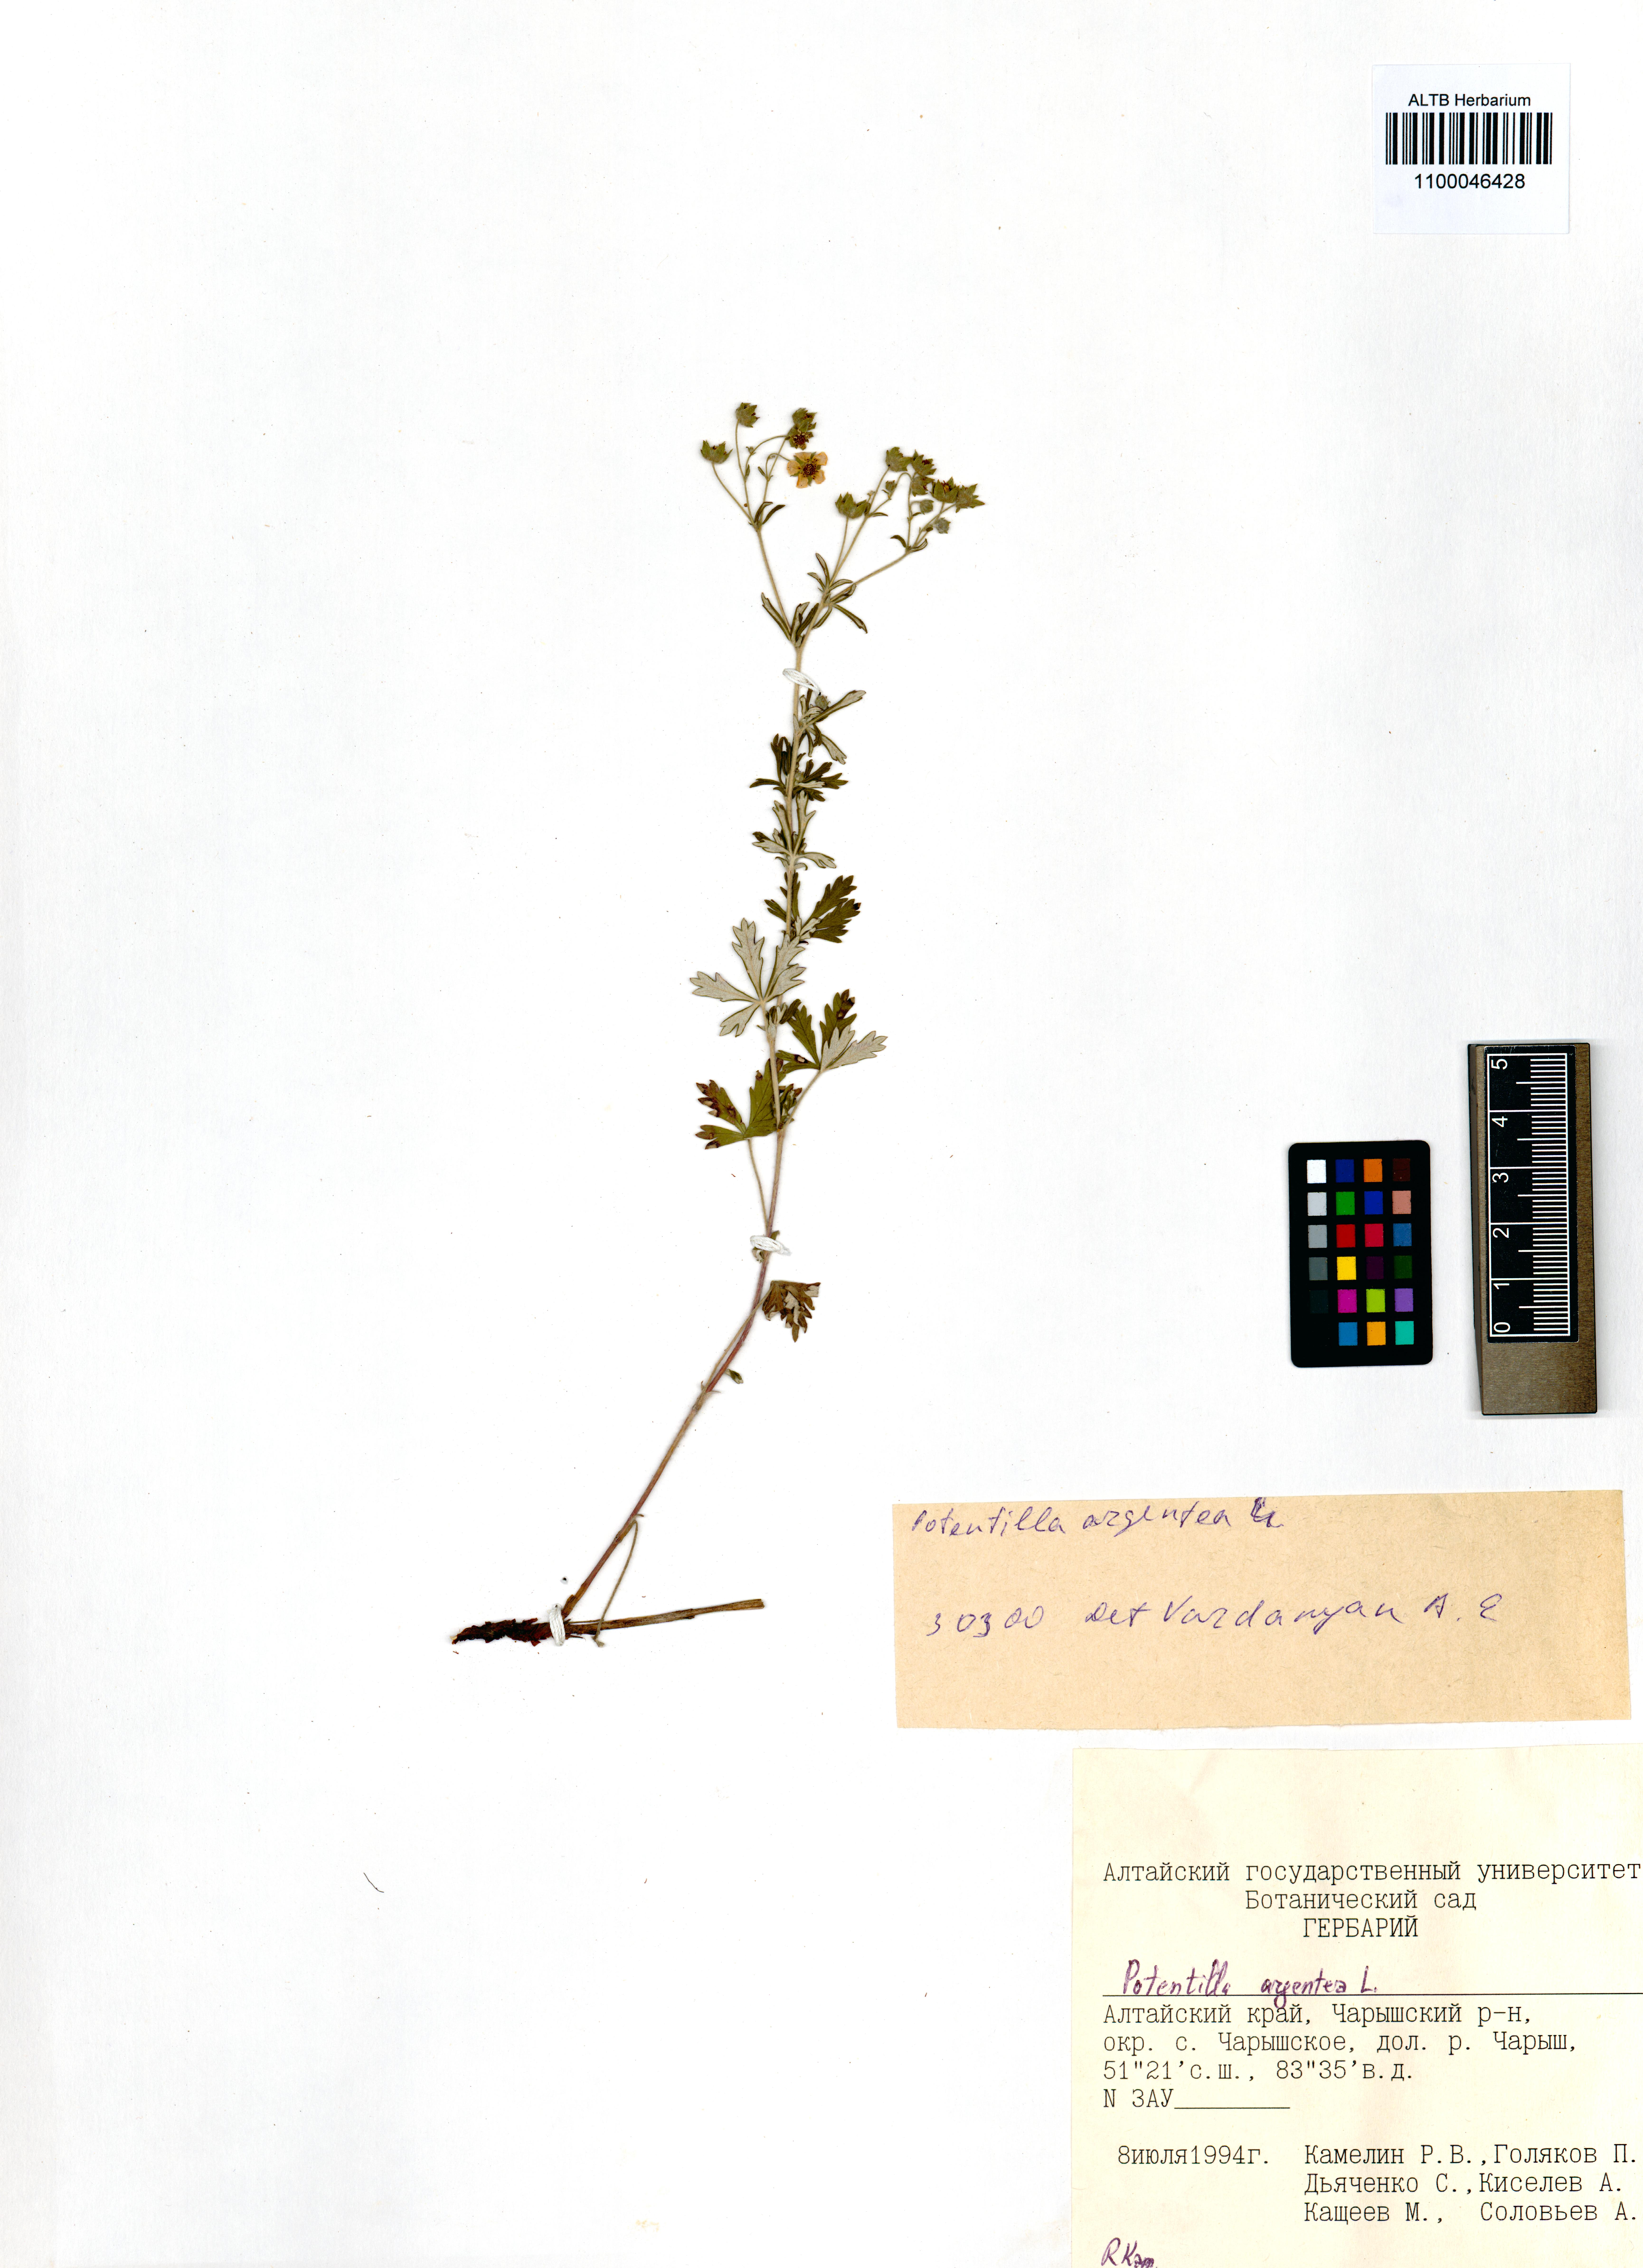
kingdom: Plantae
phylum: Tracheophyta
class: Magnoliopsida
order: Rosales
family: Rosaceae
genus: Potentilla
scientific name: Potentilla argentea
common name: Hoary cinquefoil
